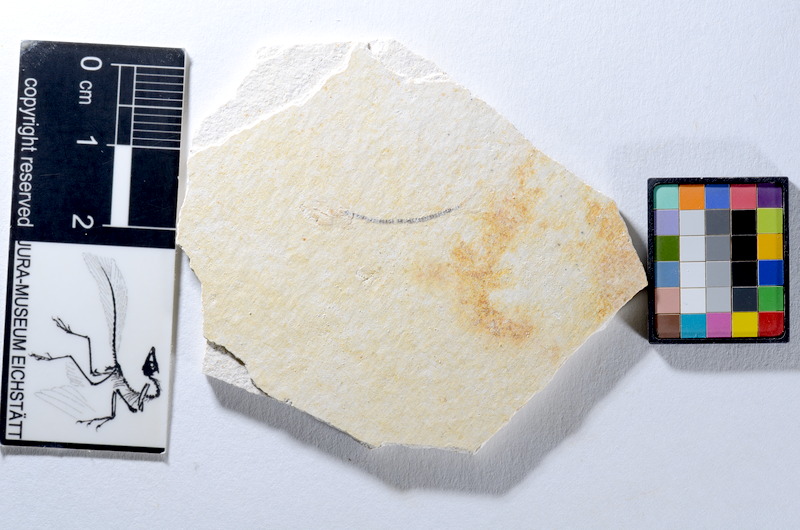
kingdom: Animalia
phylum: Chordata
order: Salmoniformes
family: Orthogonikleithridae
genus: Orthogonikleithrus
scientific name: Orthogonikleithrus hoelli
